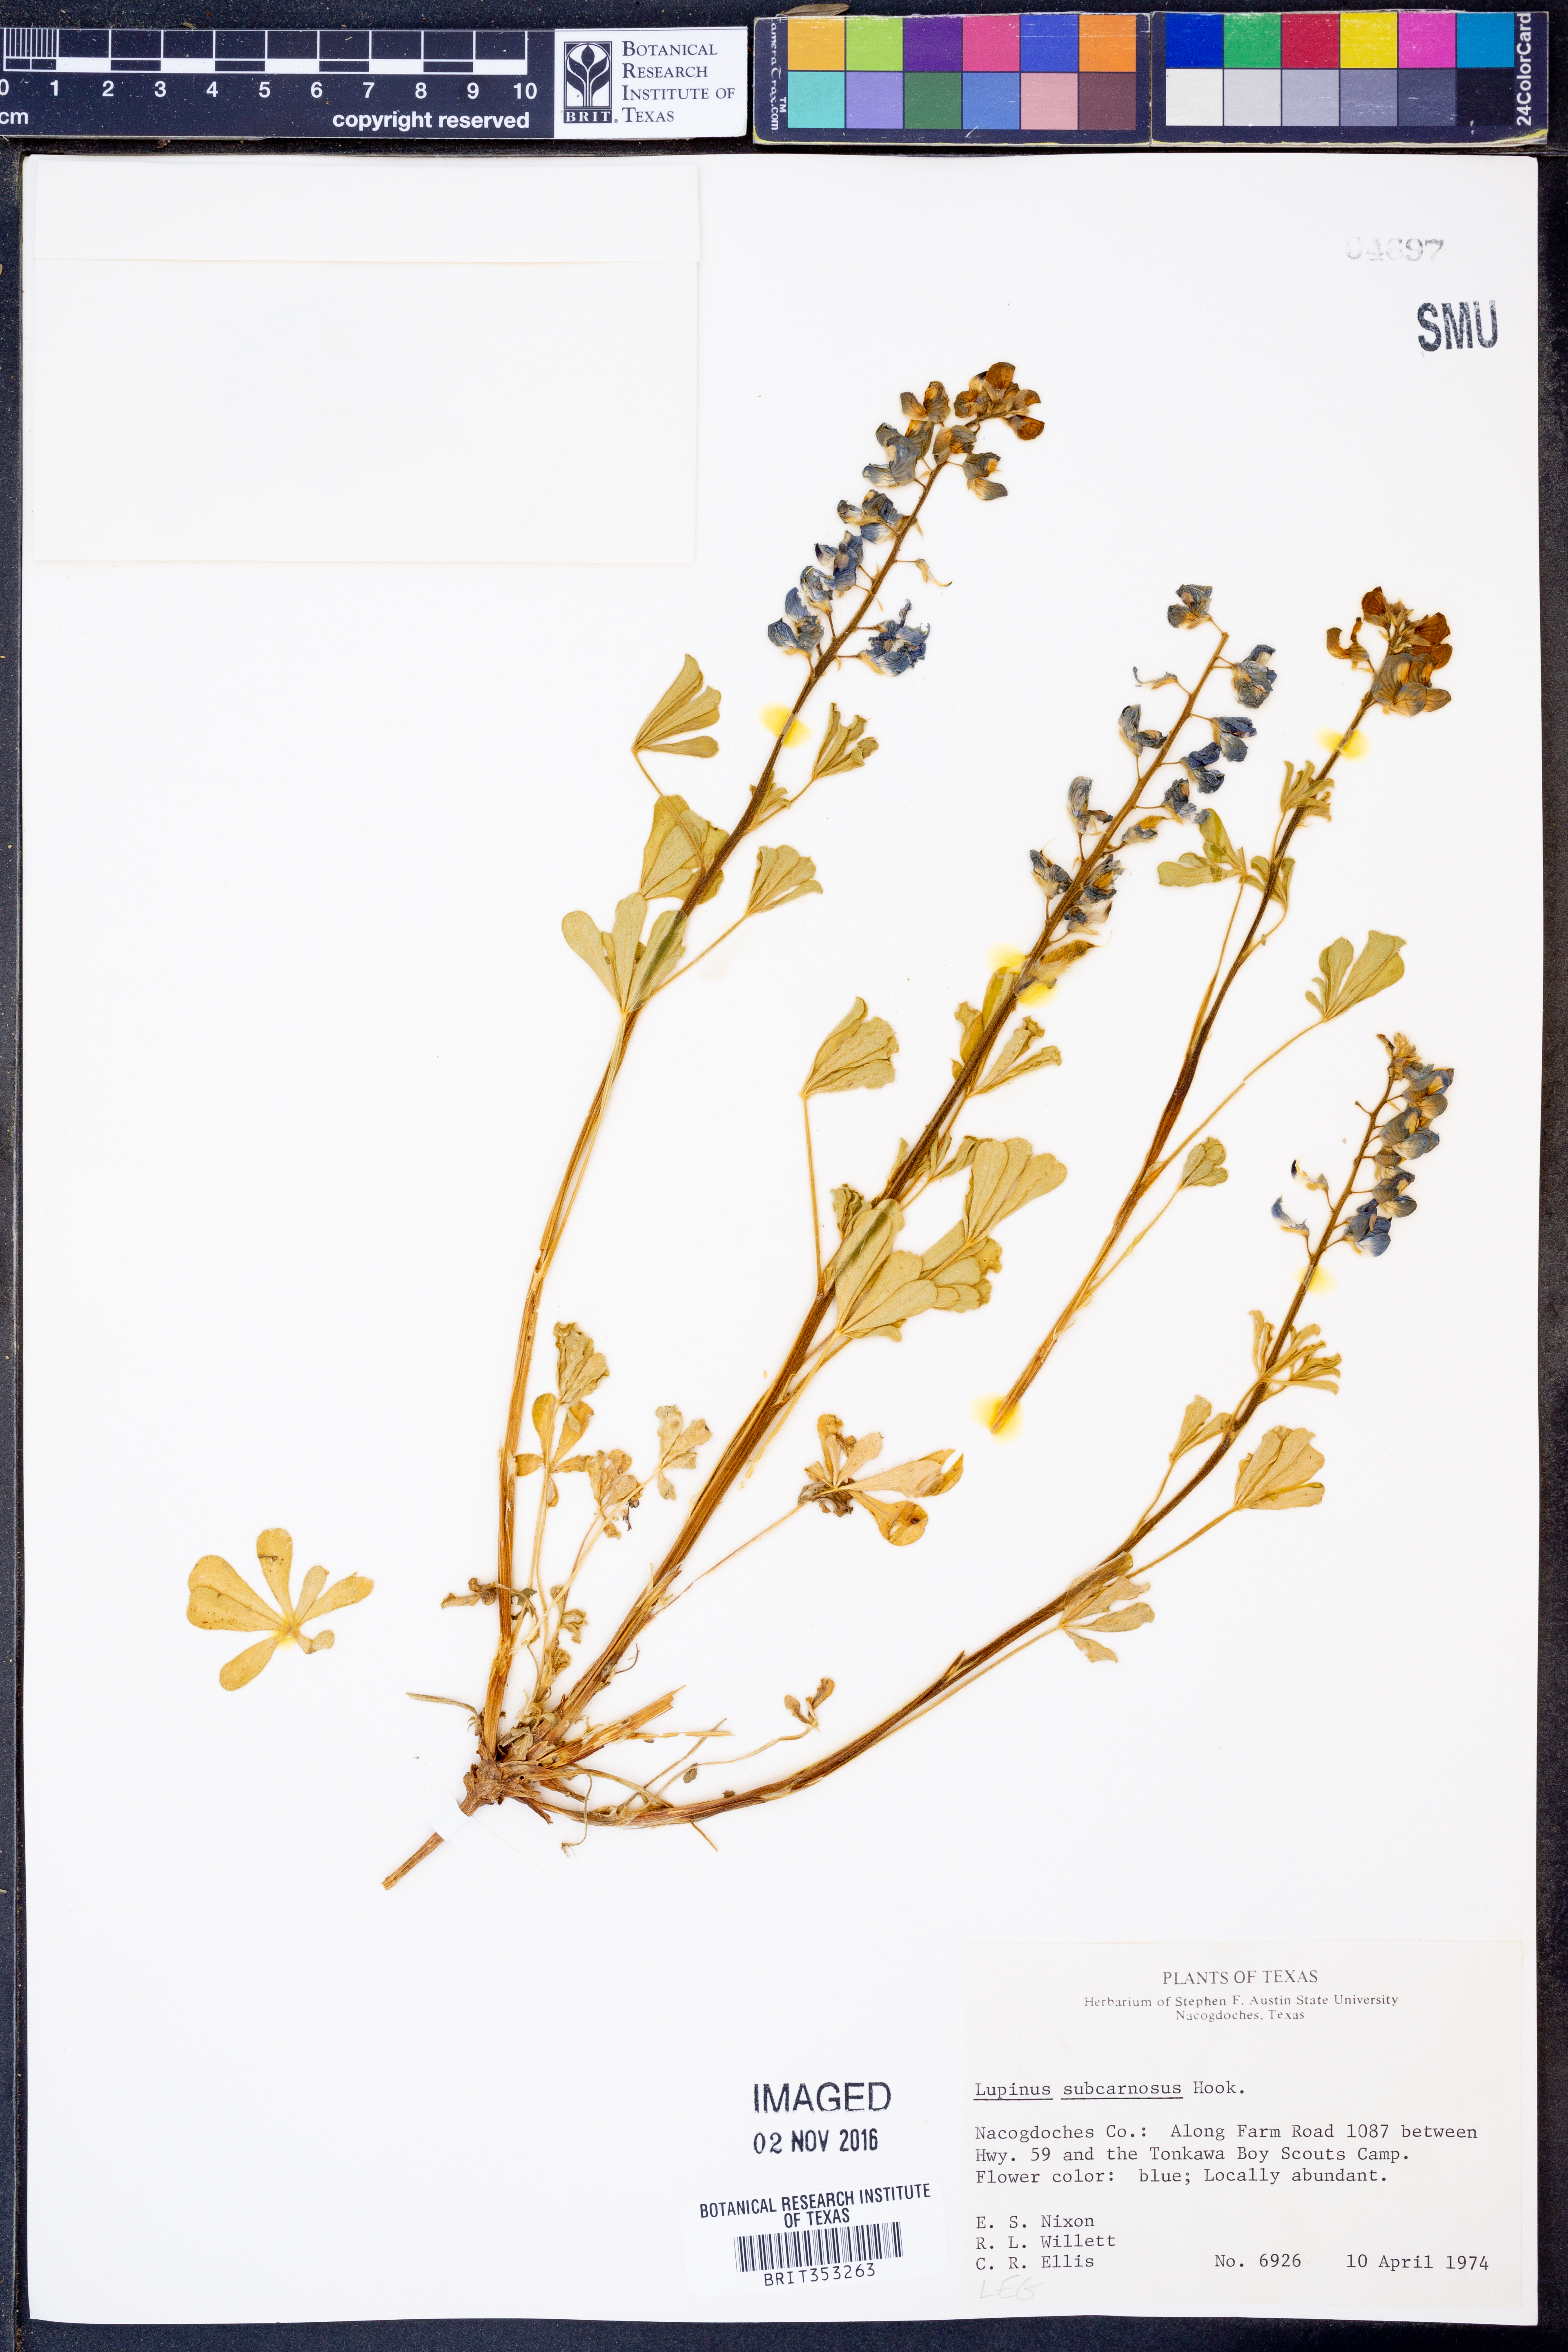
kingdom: Plantae
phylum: Tracheophyta
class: Magnoliopsida
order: Fabales
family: Fabaceae
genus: Lupinus
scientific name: Lupinus subcarnosus
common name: Texas bluebonnet
